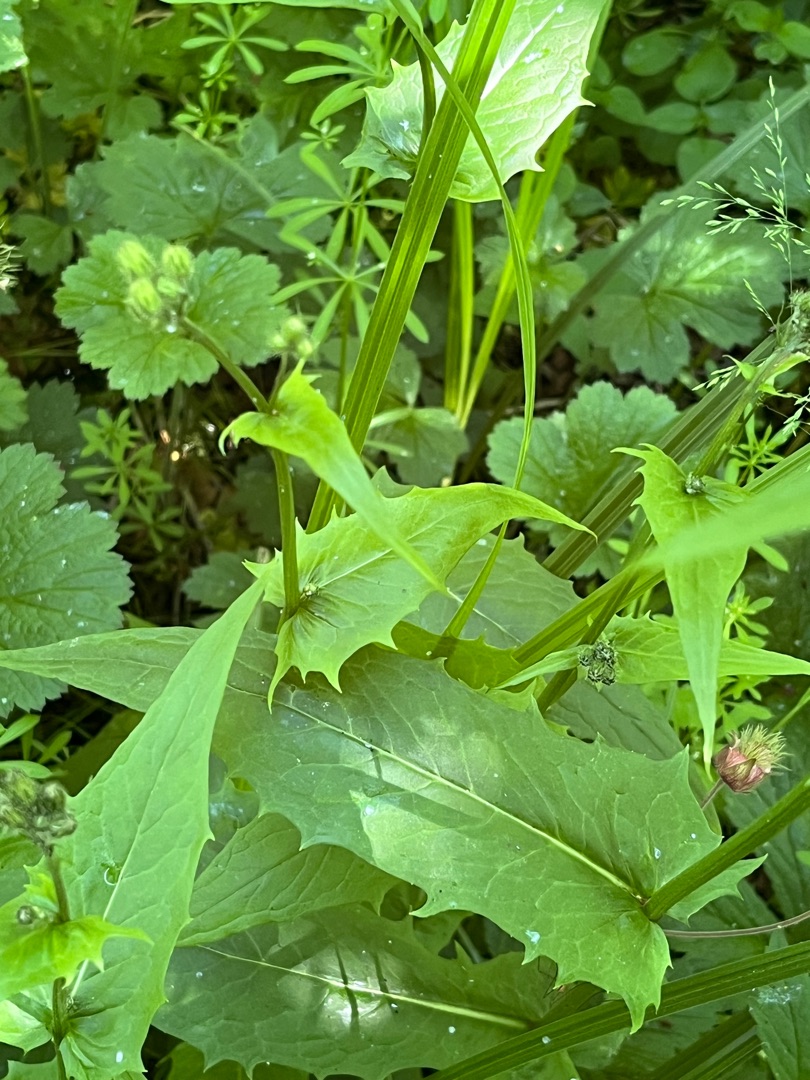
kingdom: Plantae
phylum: Tracheophyta
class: Magnoliopsida
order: Asterales
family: Asteraceae
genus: Crepis
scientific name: Crepis paludosa
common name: Kær-høgeskæg
